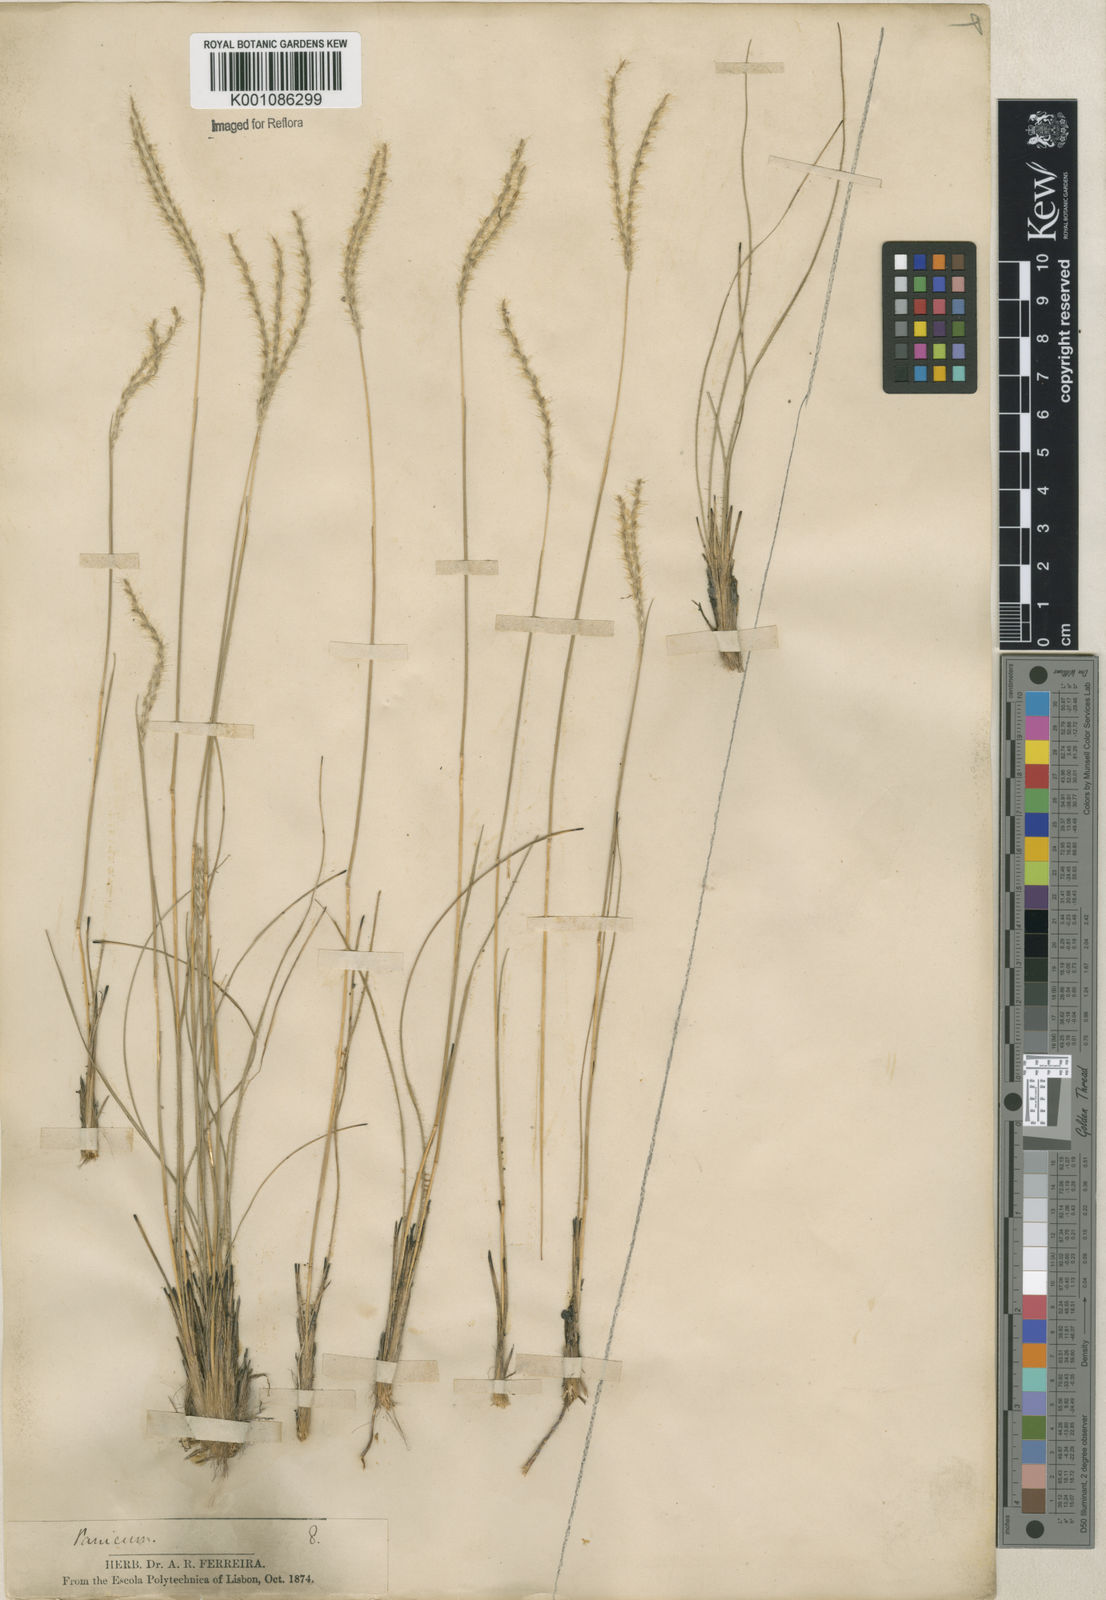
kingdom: Plantae
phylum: Tracheophyta
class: Liliopsida
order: Poales
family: Poaceae
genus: Axonopus
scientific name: Axonopus brasiliensis
